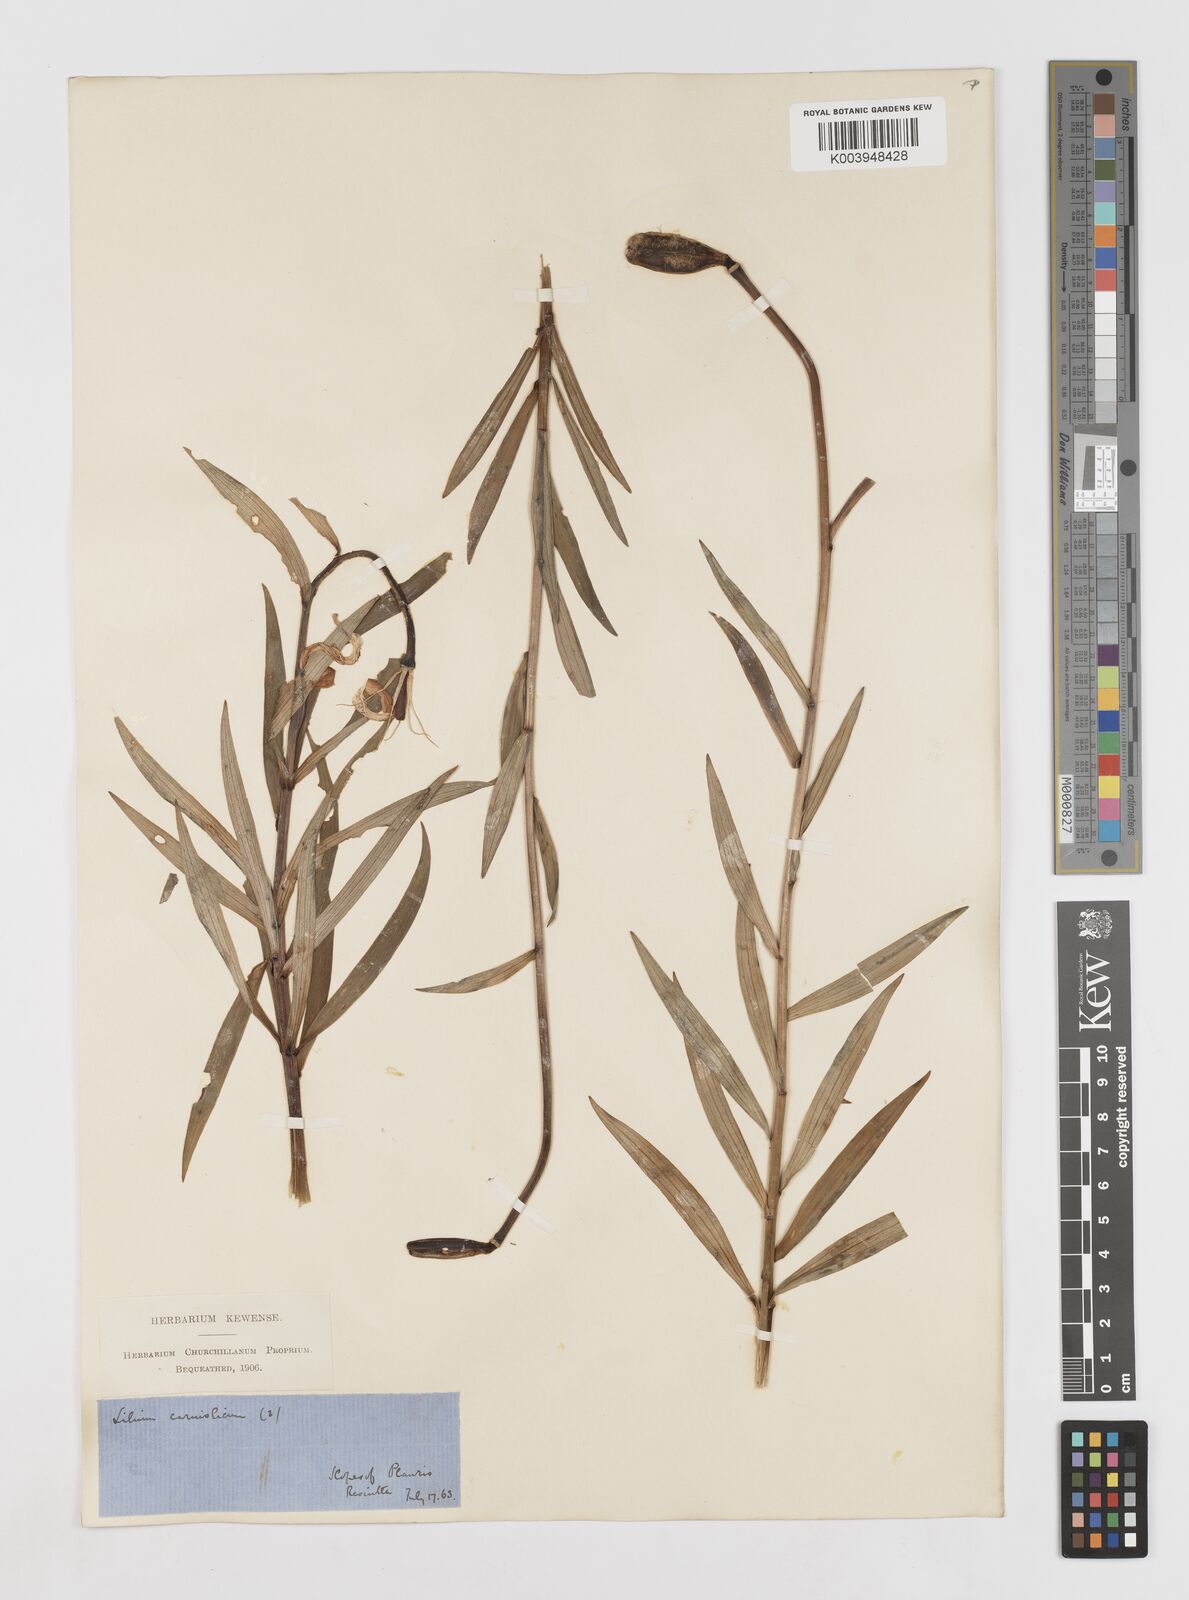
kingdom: Plantae
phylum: Tracheophyta
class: Liliopsida
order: Liliales
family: Liliaceae
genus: Lilium
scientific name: Lilium carniolicum
